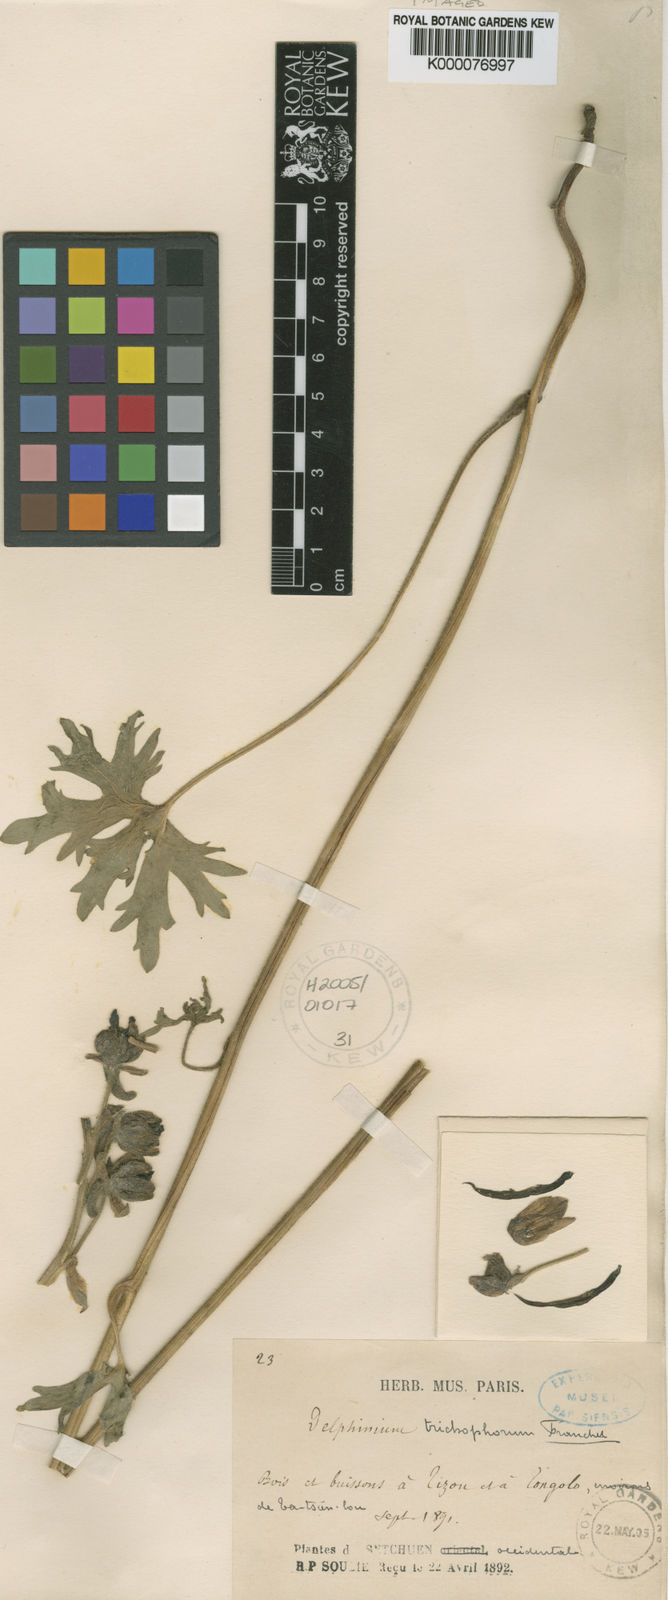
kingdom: Plantae
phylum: Tracheophyta
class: Magnoliopsida
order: Ranunculales
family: Ranunculaceae
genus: Delphinium
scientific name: Delphinium trichophorum
